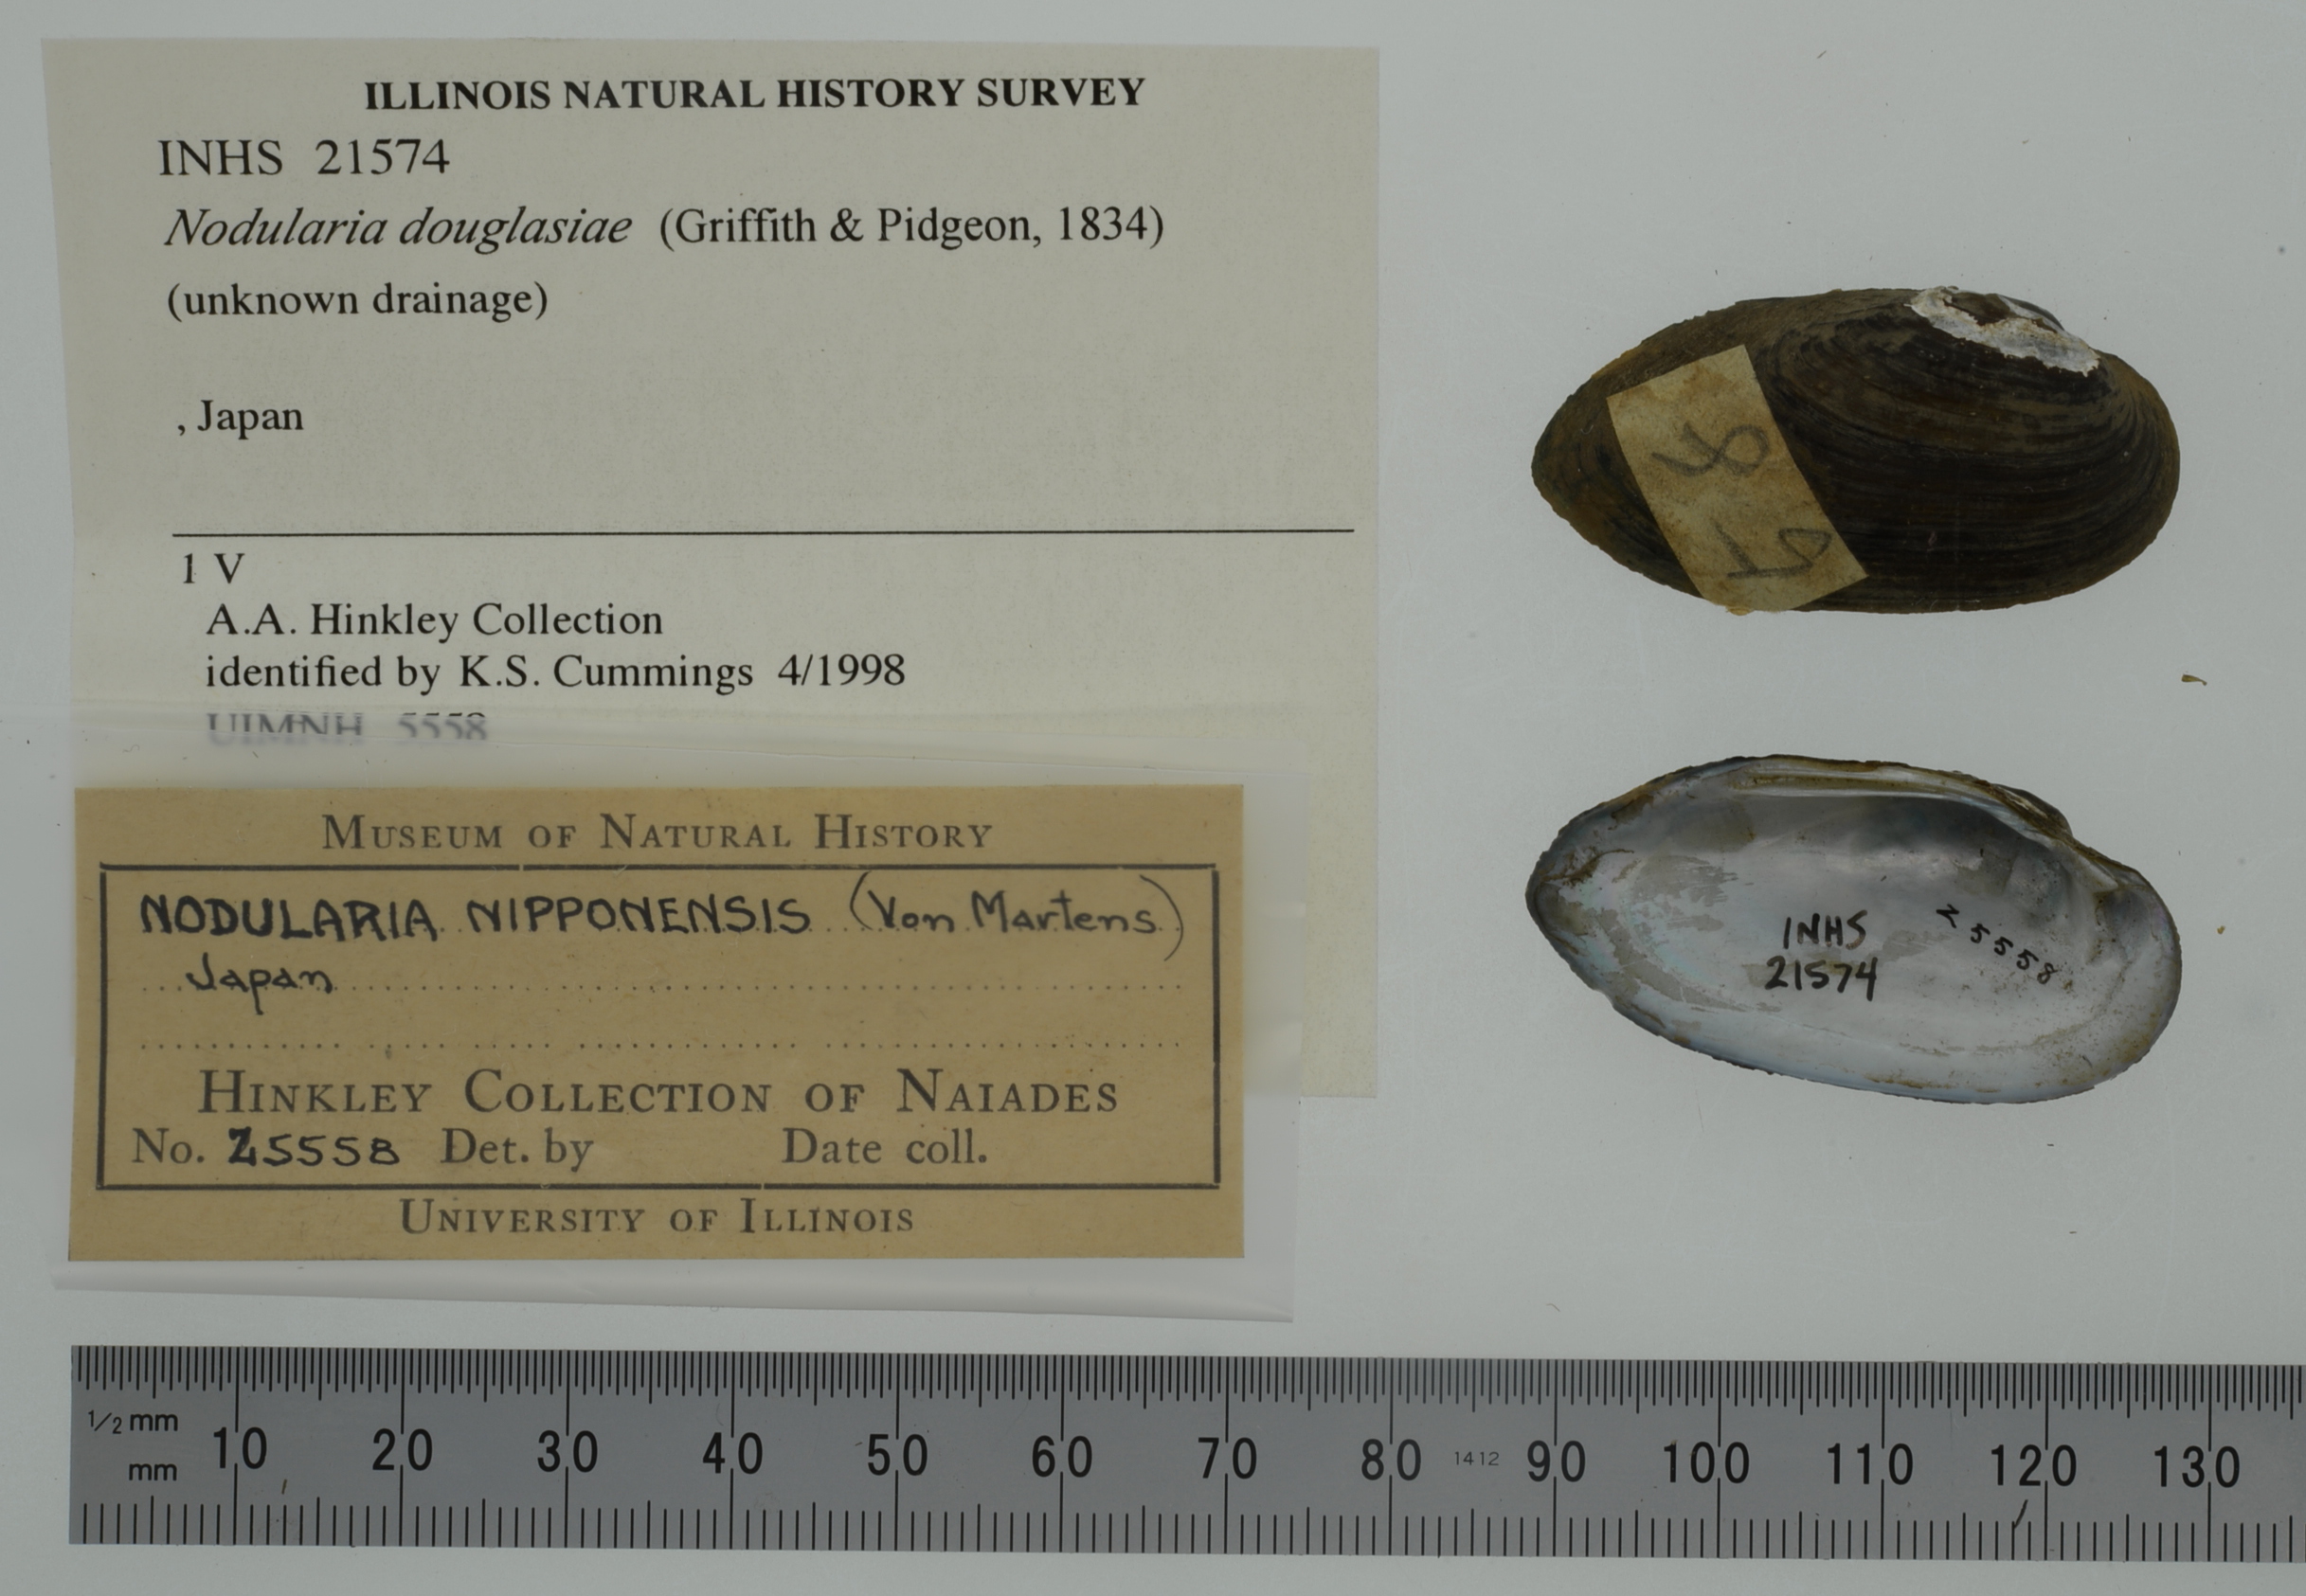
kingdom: Animalia
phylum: Mollusca
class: Bivalvia
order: Unionida
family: Unionidae
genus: Nodularia
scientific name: Nodularia douglasiae
